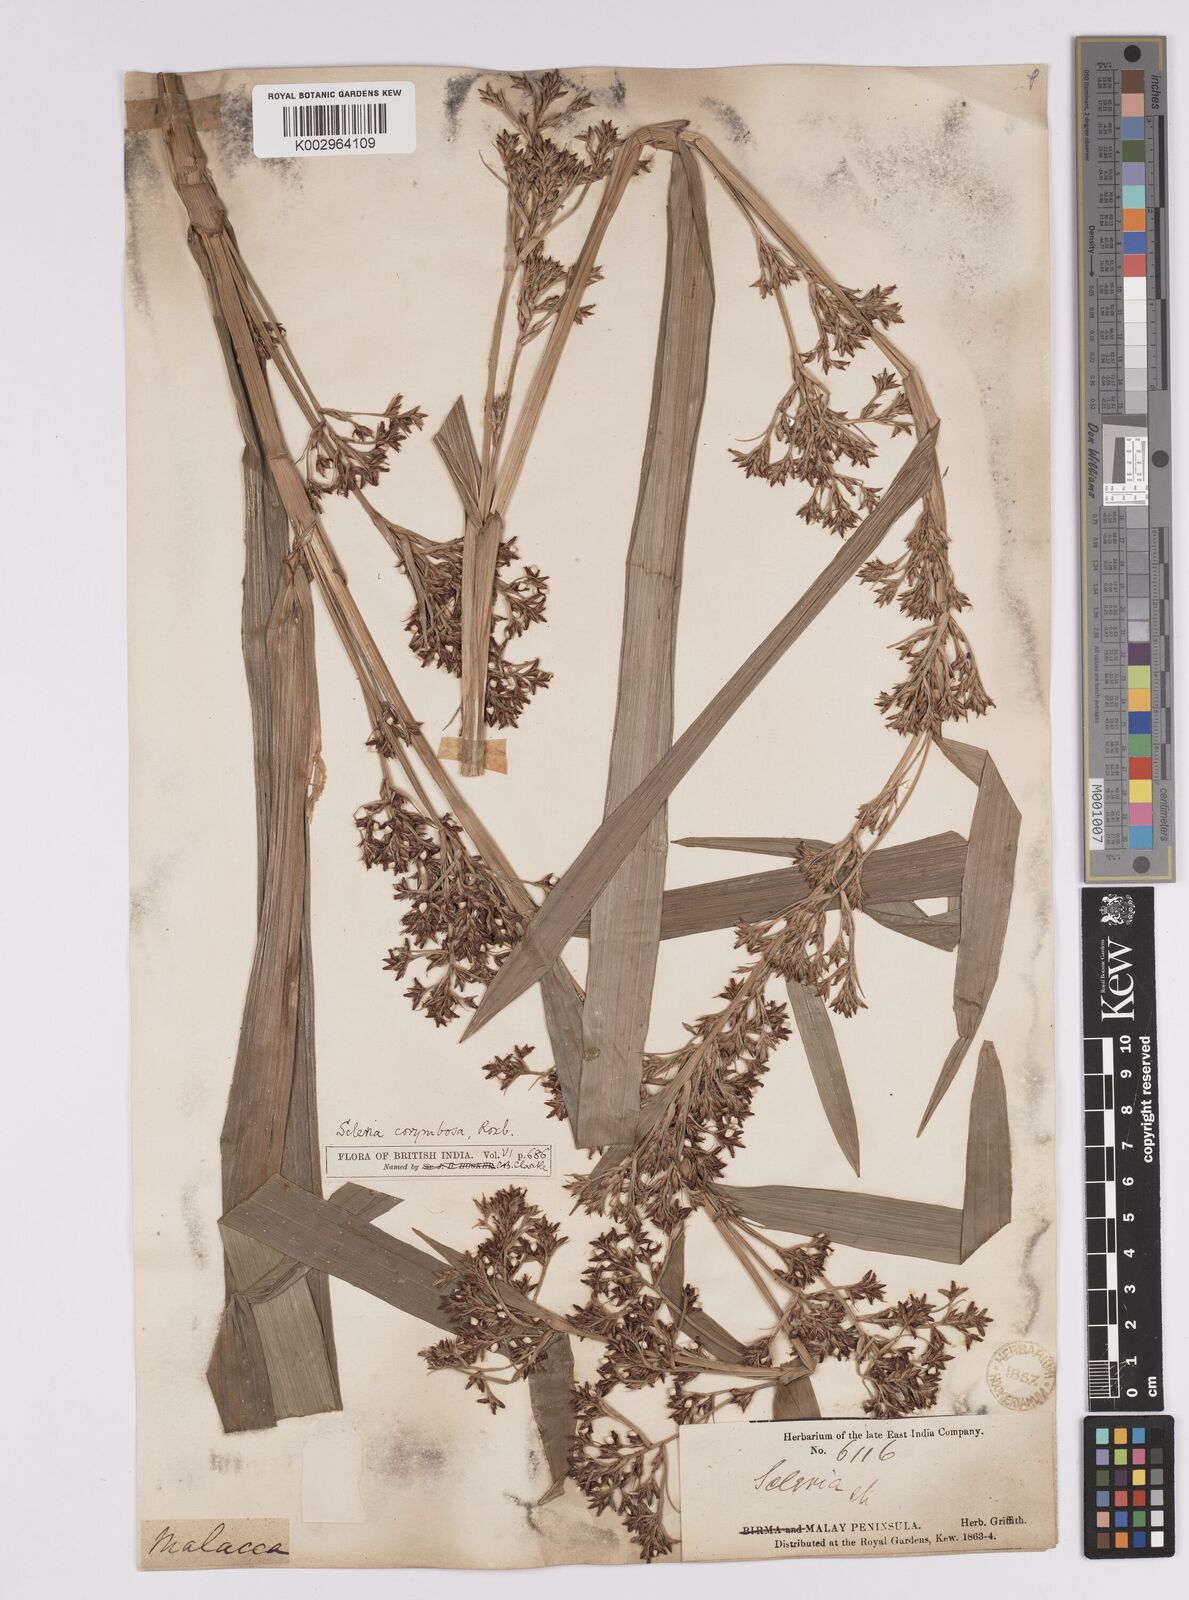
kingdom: Plantae
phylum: Tracheophyta
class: Liliopsida
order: Poales
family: Cyperaceae
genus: Scleria
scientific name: Scleria corymbosa
